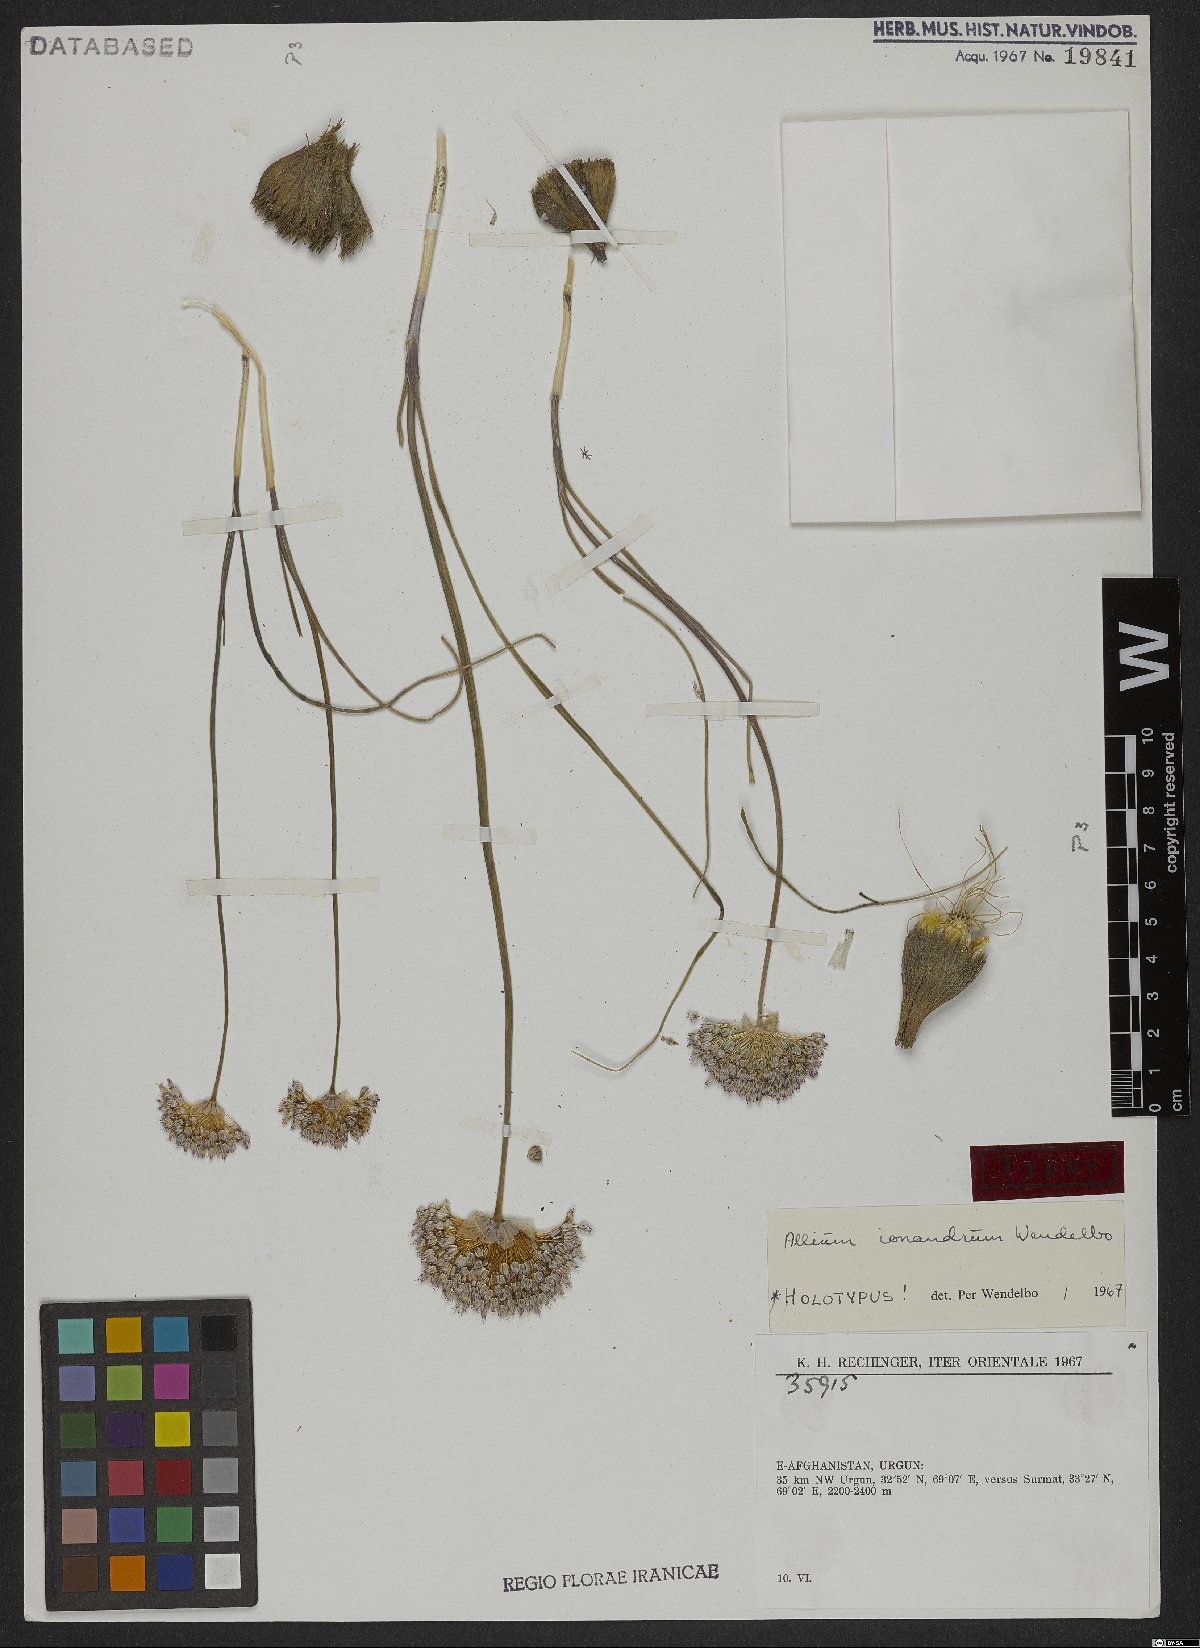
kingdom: Plantae
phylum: Tracheophyta
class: Liliopsida
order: Asparagales
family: Amaryllidaceae
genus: Allium
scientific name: Allium ionandrum
